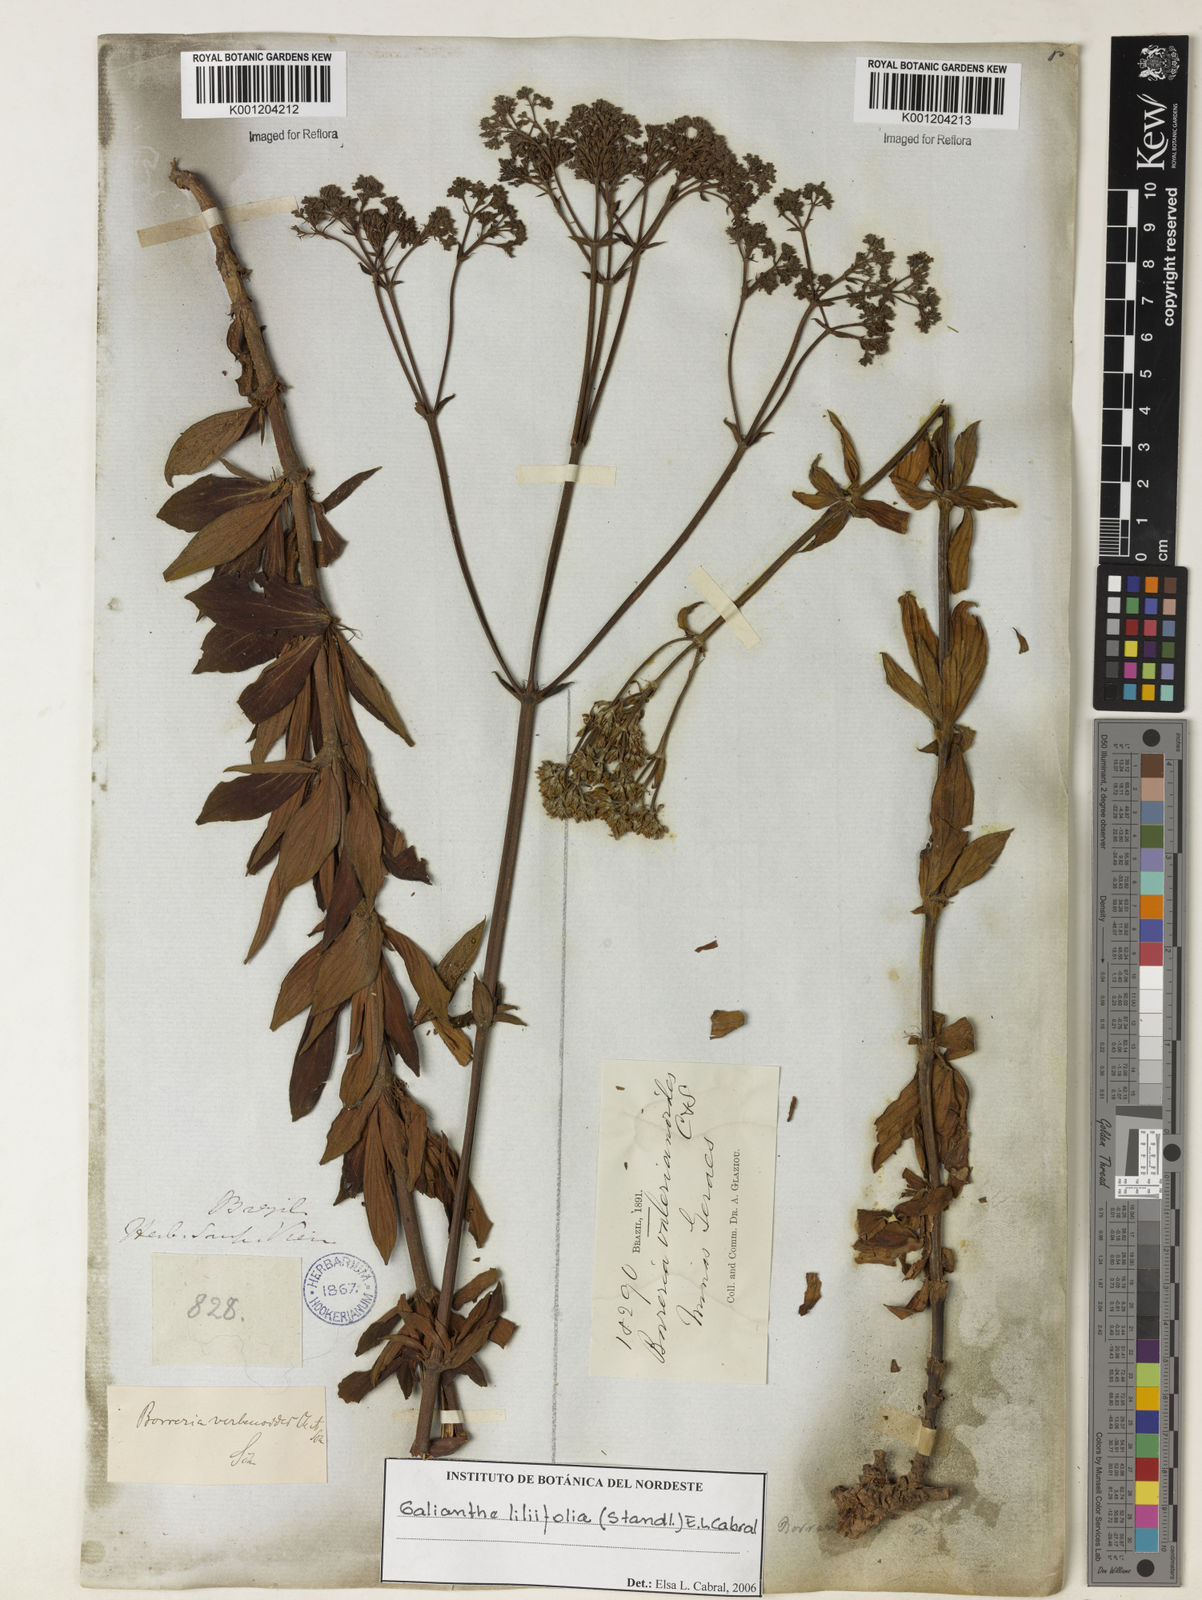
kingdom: Plantae
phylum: Tracheophyta
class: Magnoliopsida
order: Gentianales
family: Rubiaceae
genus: Galianthe
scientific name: Galianthe liliifolia
